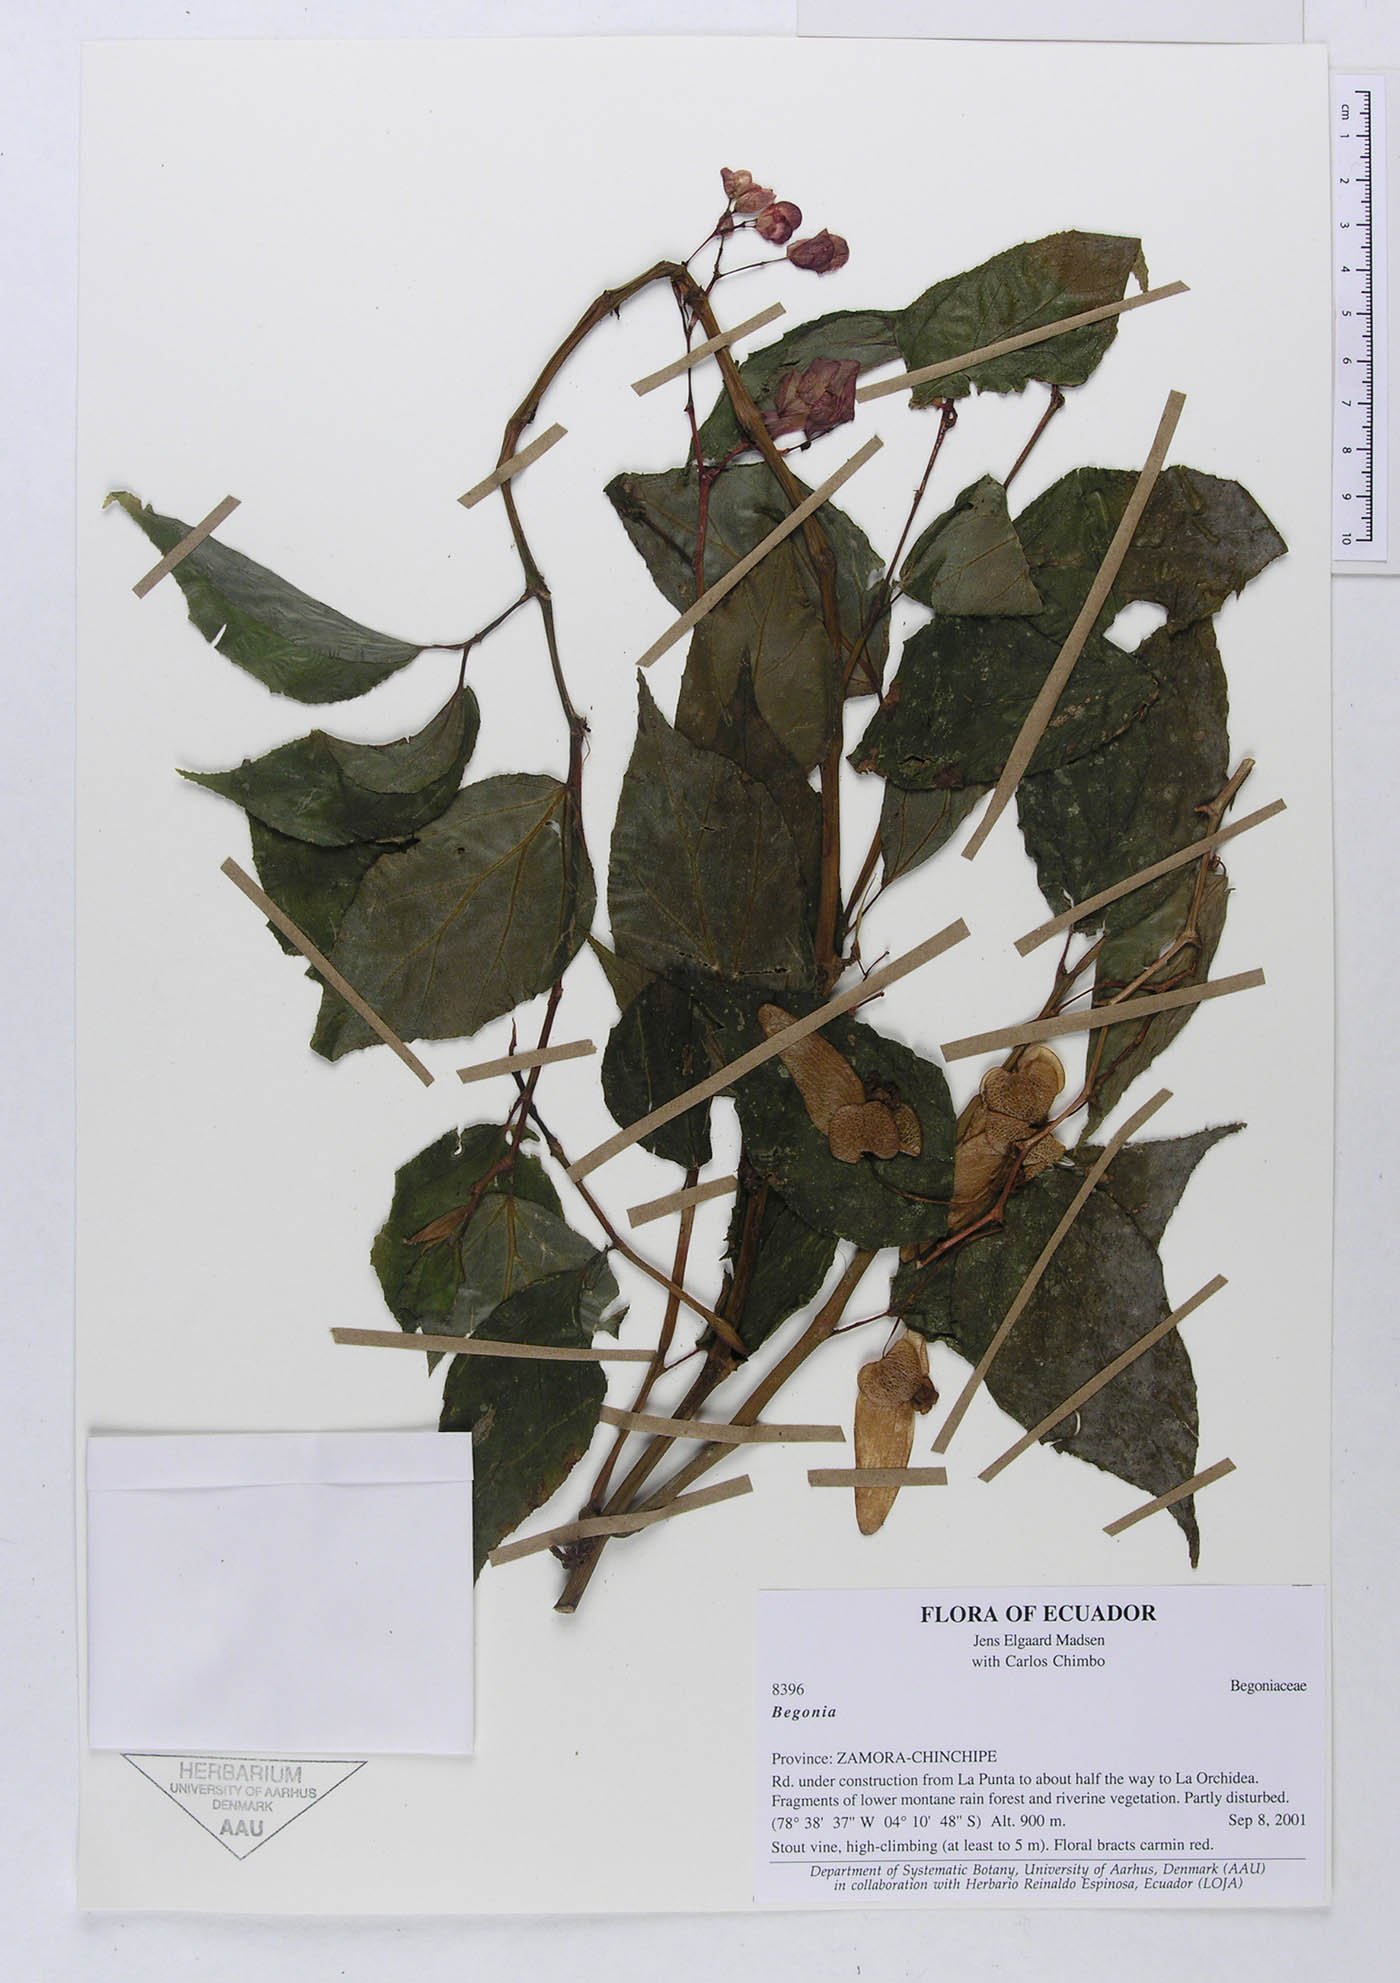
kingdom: Plantae
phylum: Tracheophyta
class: Magnoliopsida
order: Cucurbitales
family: Begoniaceae
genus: Begonia
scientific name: Begonia rossmanniae
